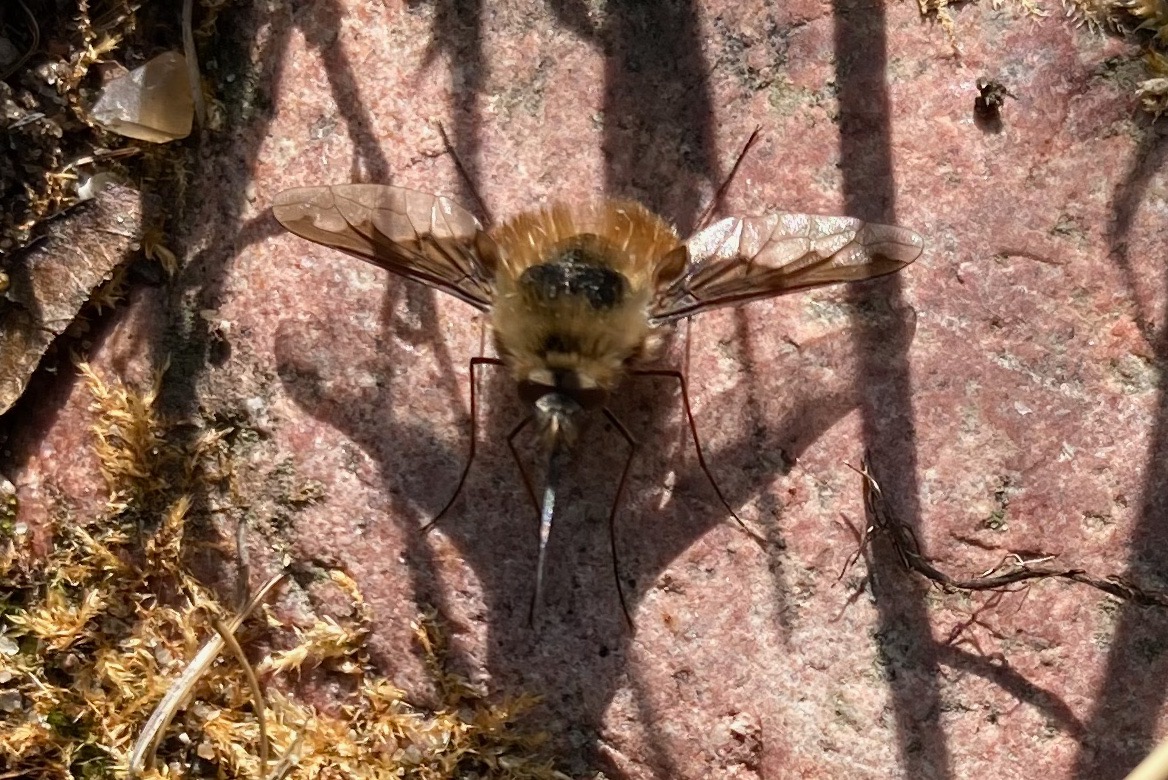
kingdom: Animalia
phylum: Arthropoda
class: Insecta
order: Diptera
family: Bombyliidae
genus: Bombylius
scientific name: Bombylius major
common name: Stor humleflue
